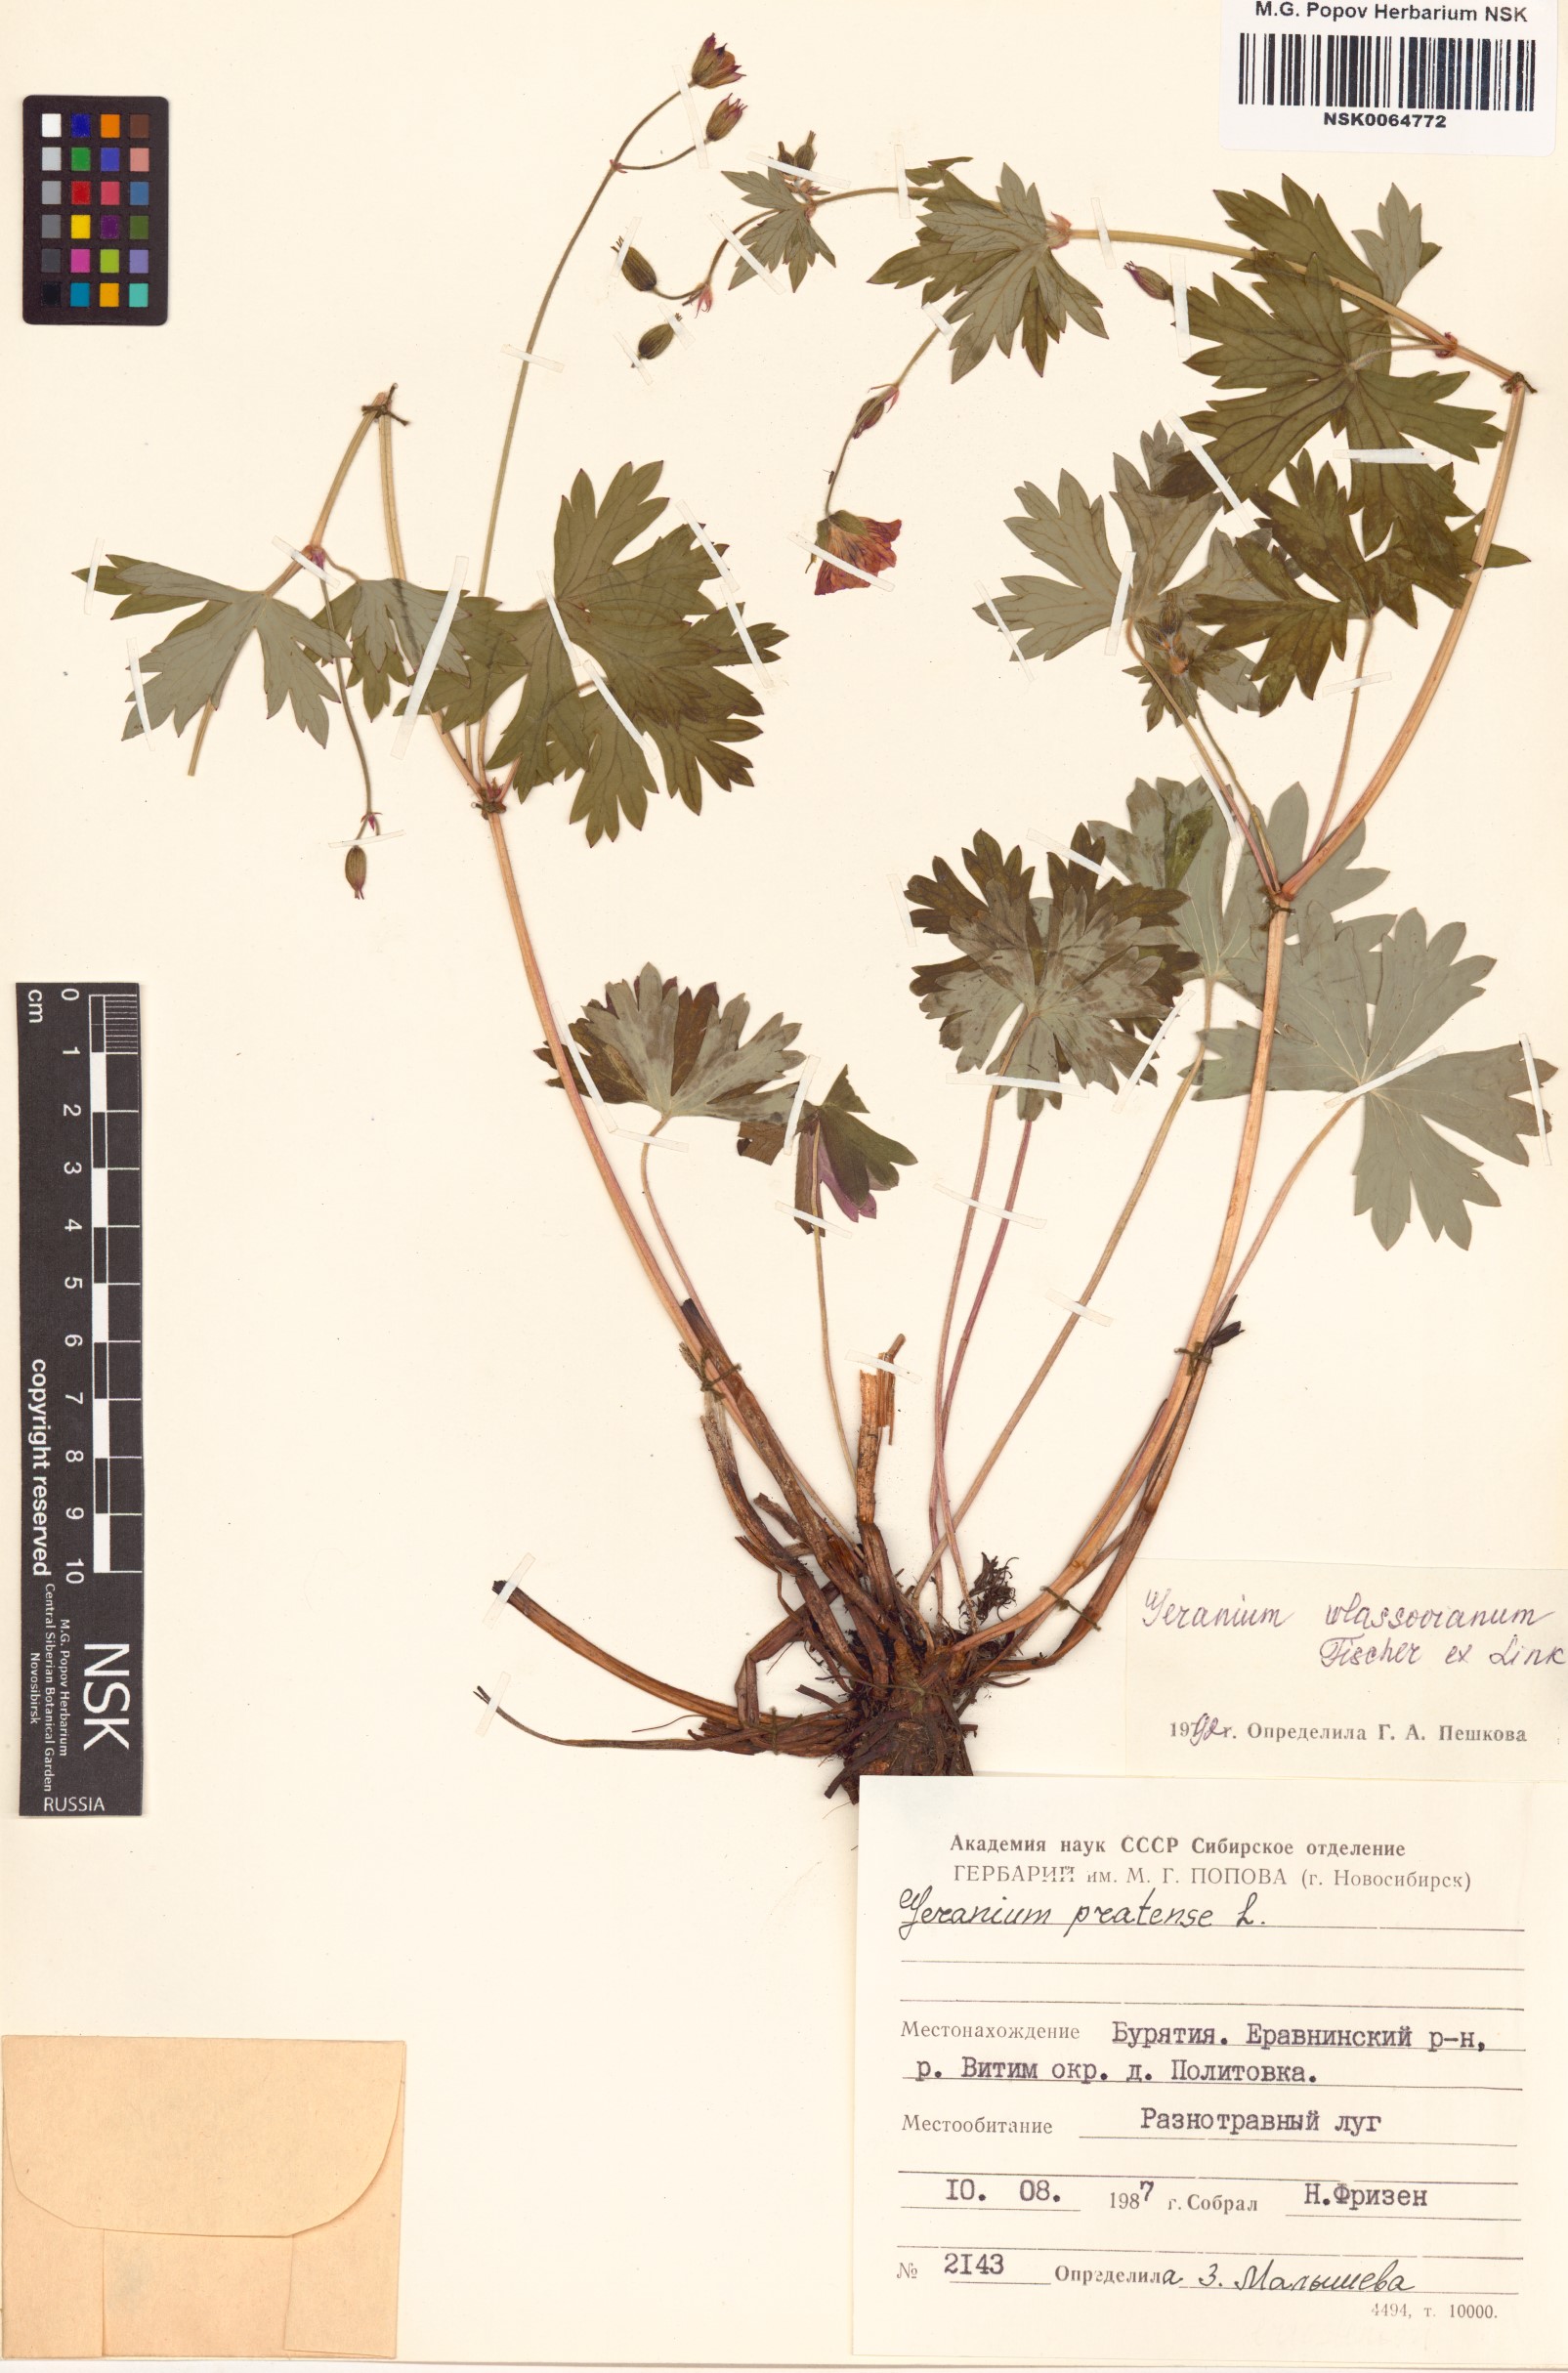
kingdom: Plantae
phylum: Tracheophyta
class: Magnoliopsida
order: Geraniales
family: Geraniaceae
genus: Geranium
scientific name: Geranium wlassovianum
